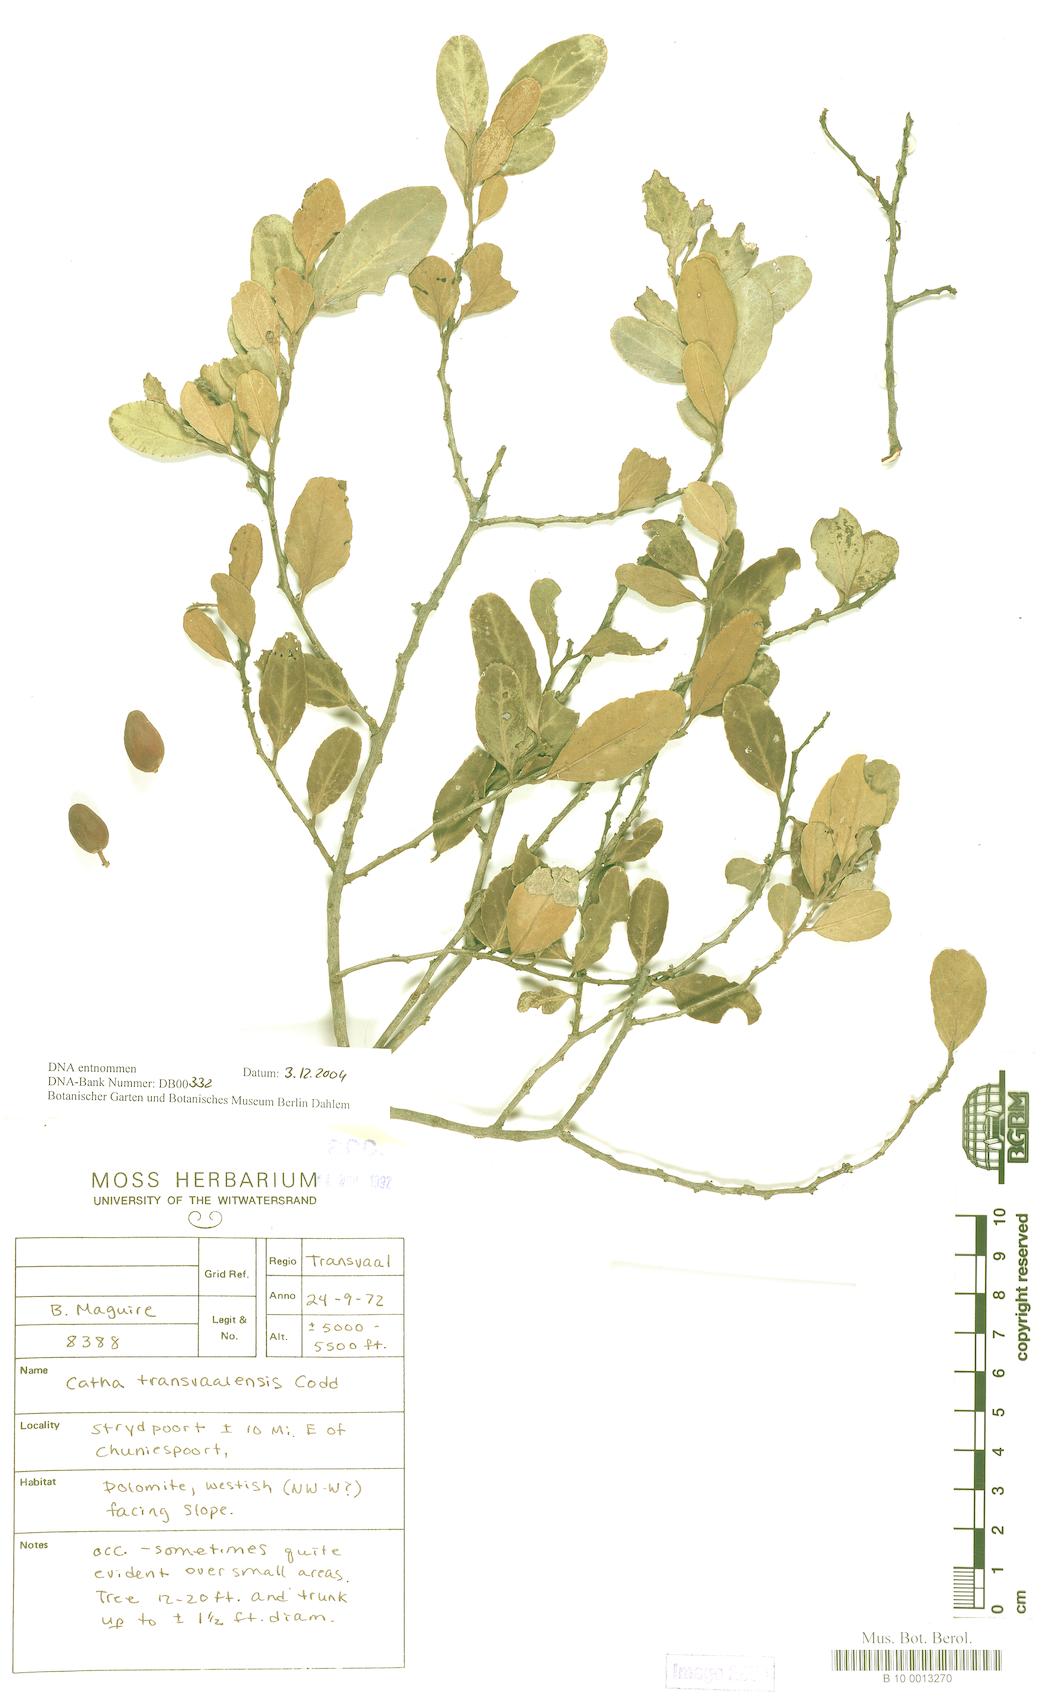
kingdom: Plantae
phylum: Tracheophyta
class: Magnoliopsida
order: Celastrales
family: Celastraceae
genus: Lydenburgia
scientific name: Lydenburgia cassinoides
